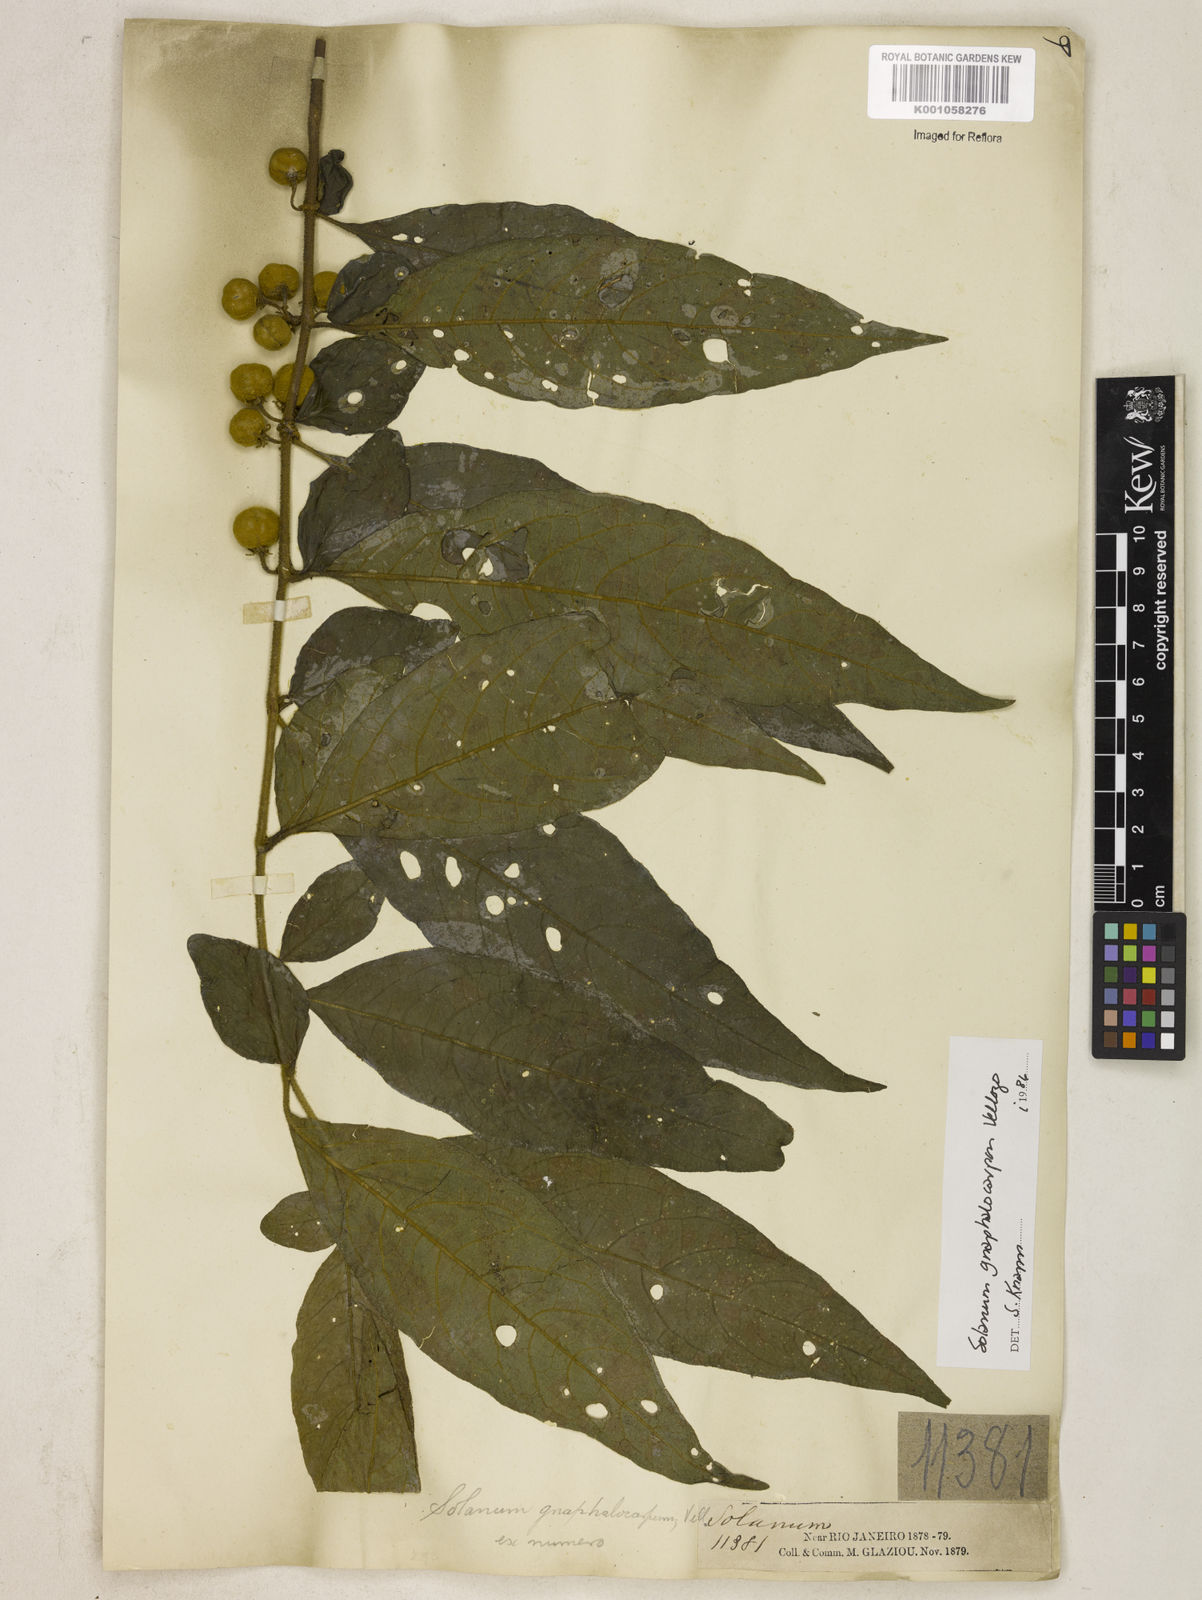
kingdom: Plantae
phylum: Tracheophyta
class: Magnoliopsida
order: Solanales
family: Solanaceae
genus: Solanum
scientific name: Solanum gnaphalocarpum
